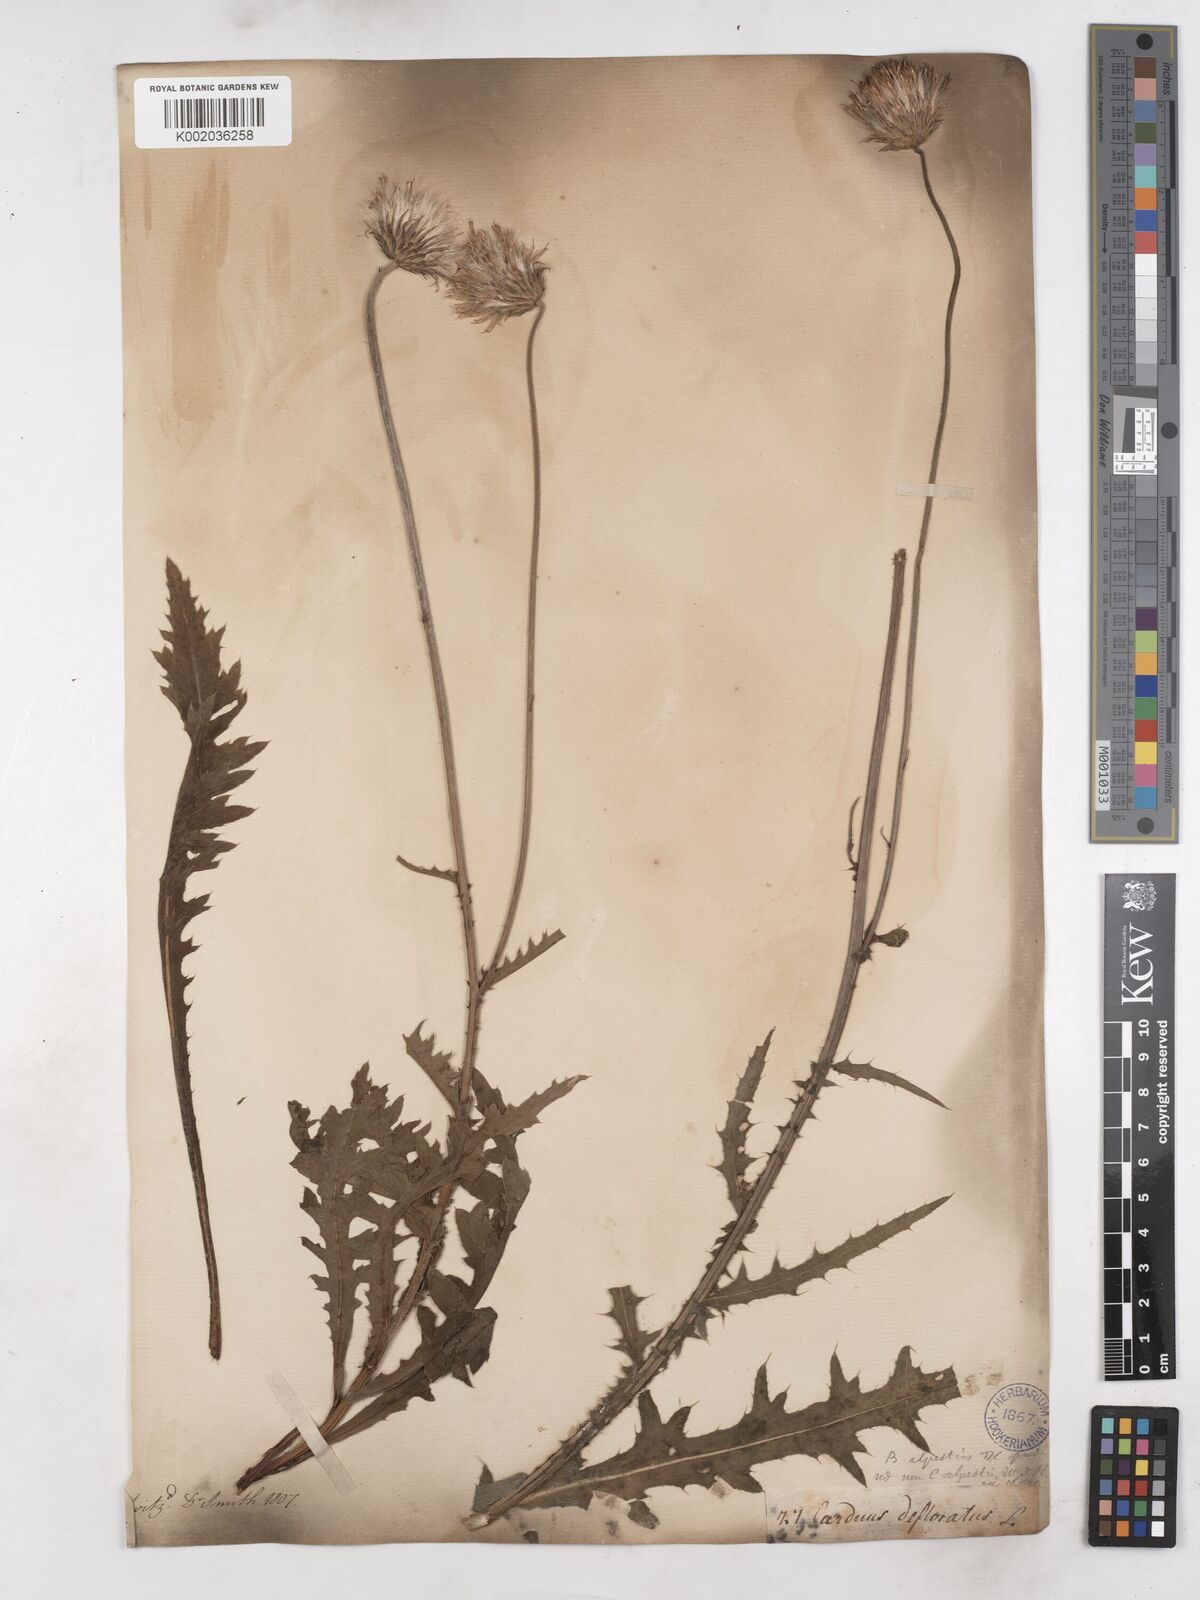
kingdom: Plantae
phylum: Tracheophyta
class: Magnoliopsida
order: Asterales
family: Asteraceae
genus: Carduus
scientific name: Carduus defloratus
